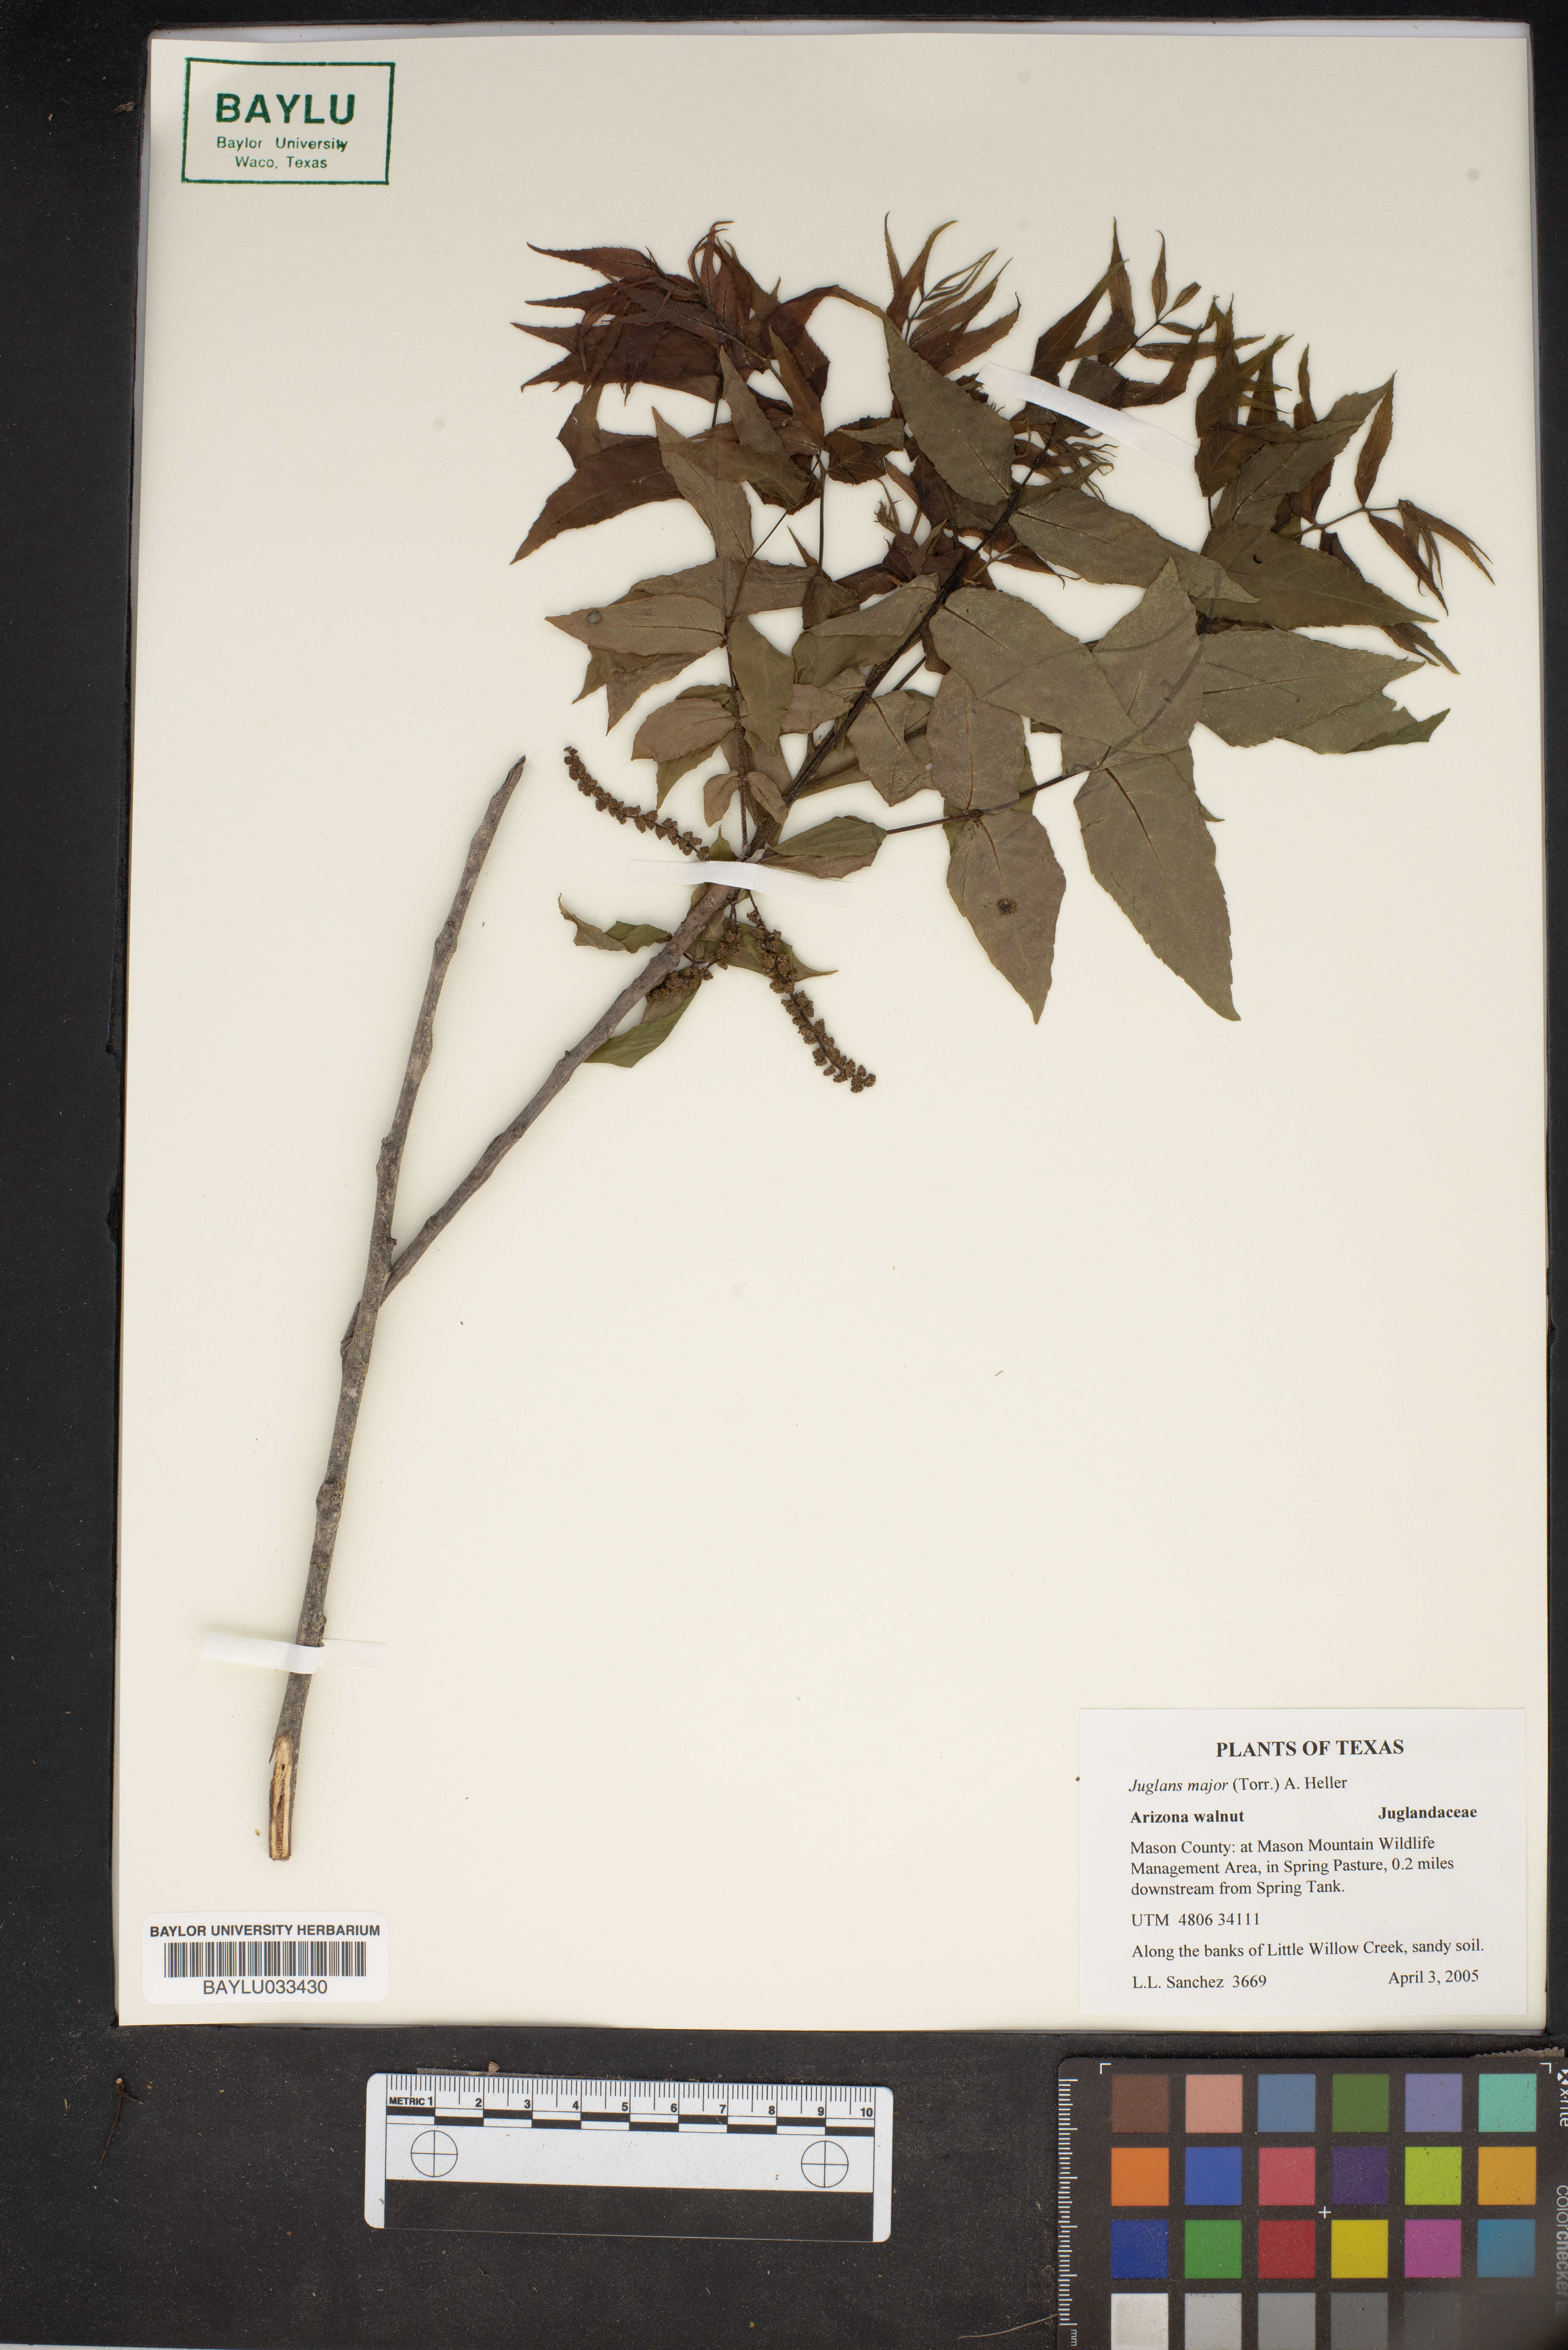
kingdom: Plantae
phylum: Tracheophyta
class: Magnoliopsida
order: Fagales
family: Juglandaceae
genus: Juglans
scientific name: Juglans major
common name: Arizona walnut
